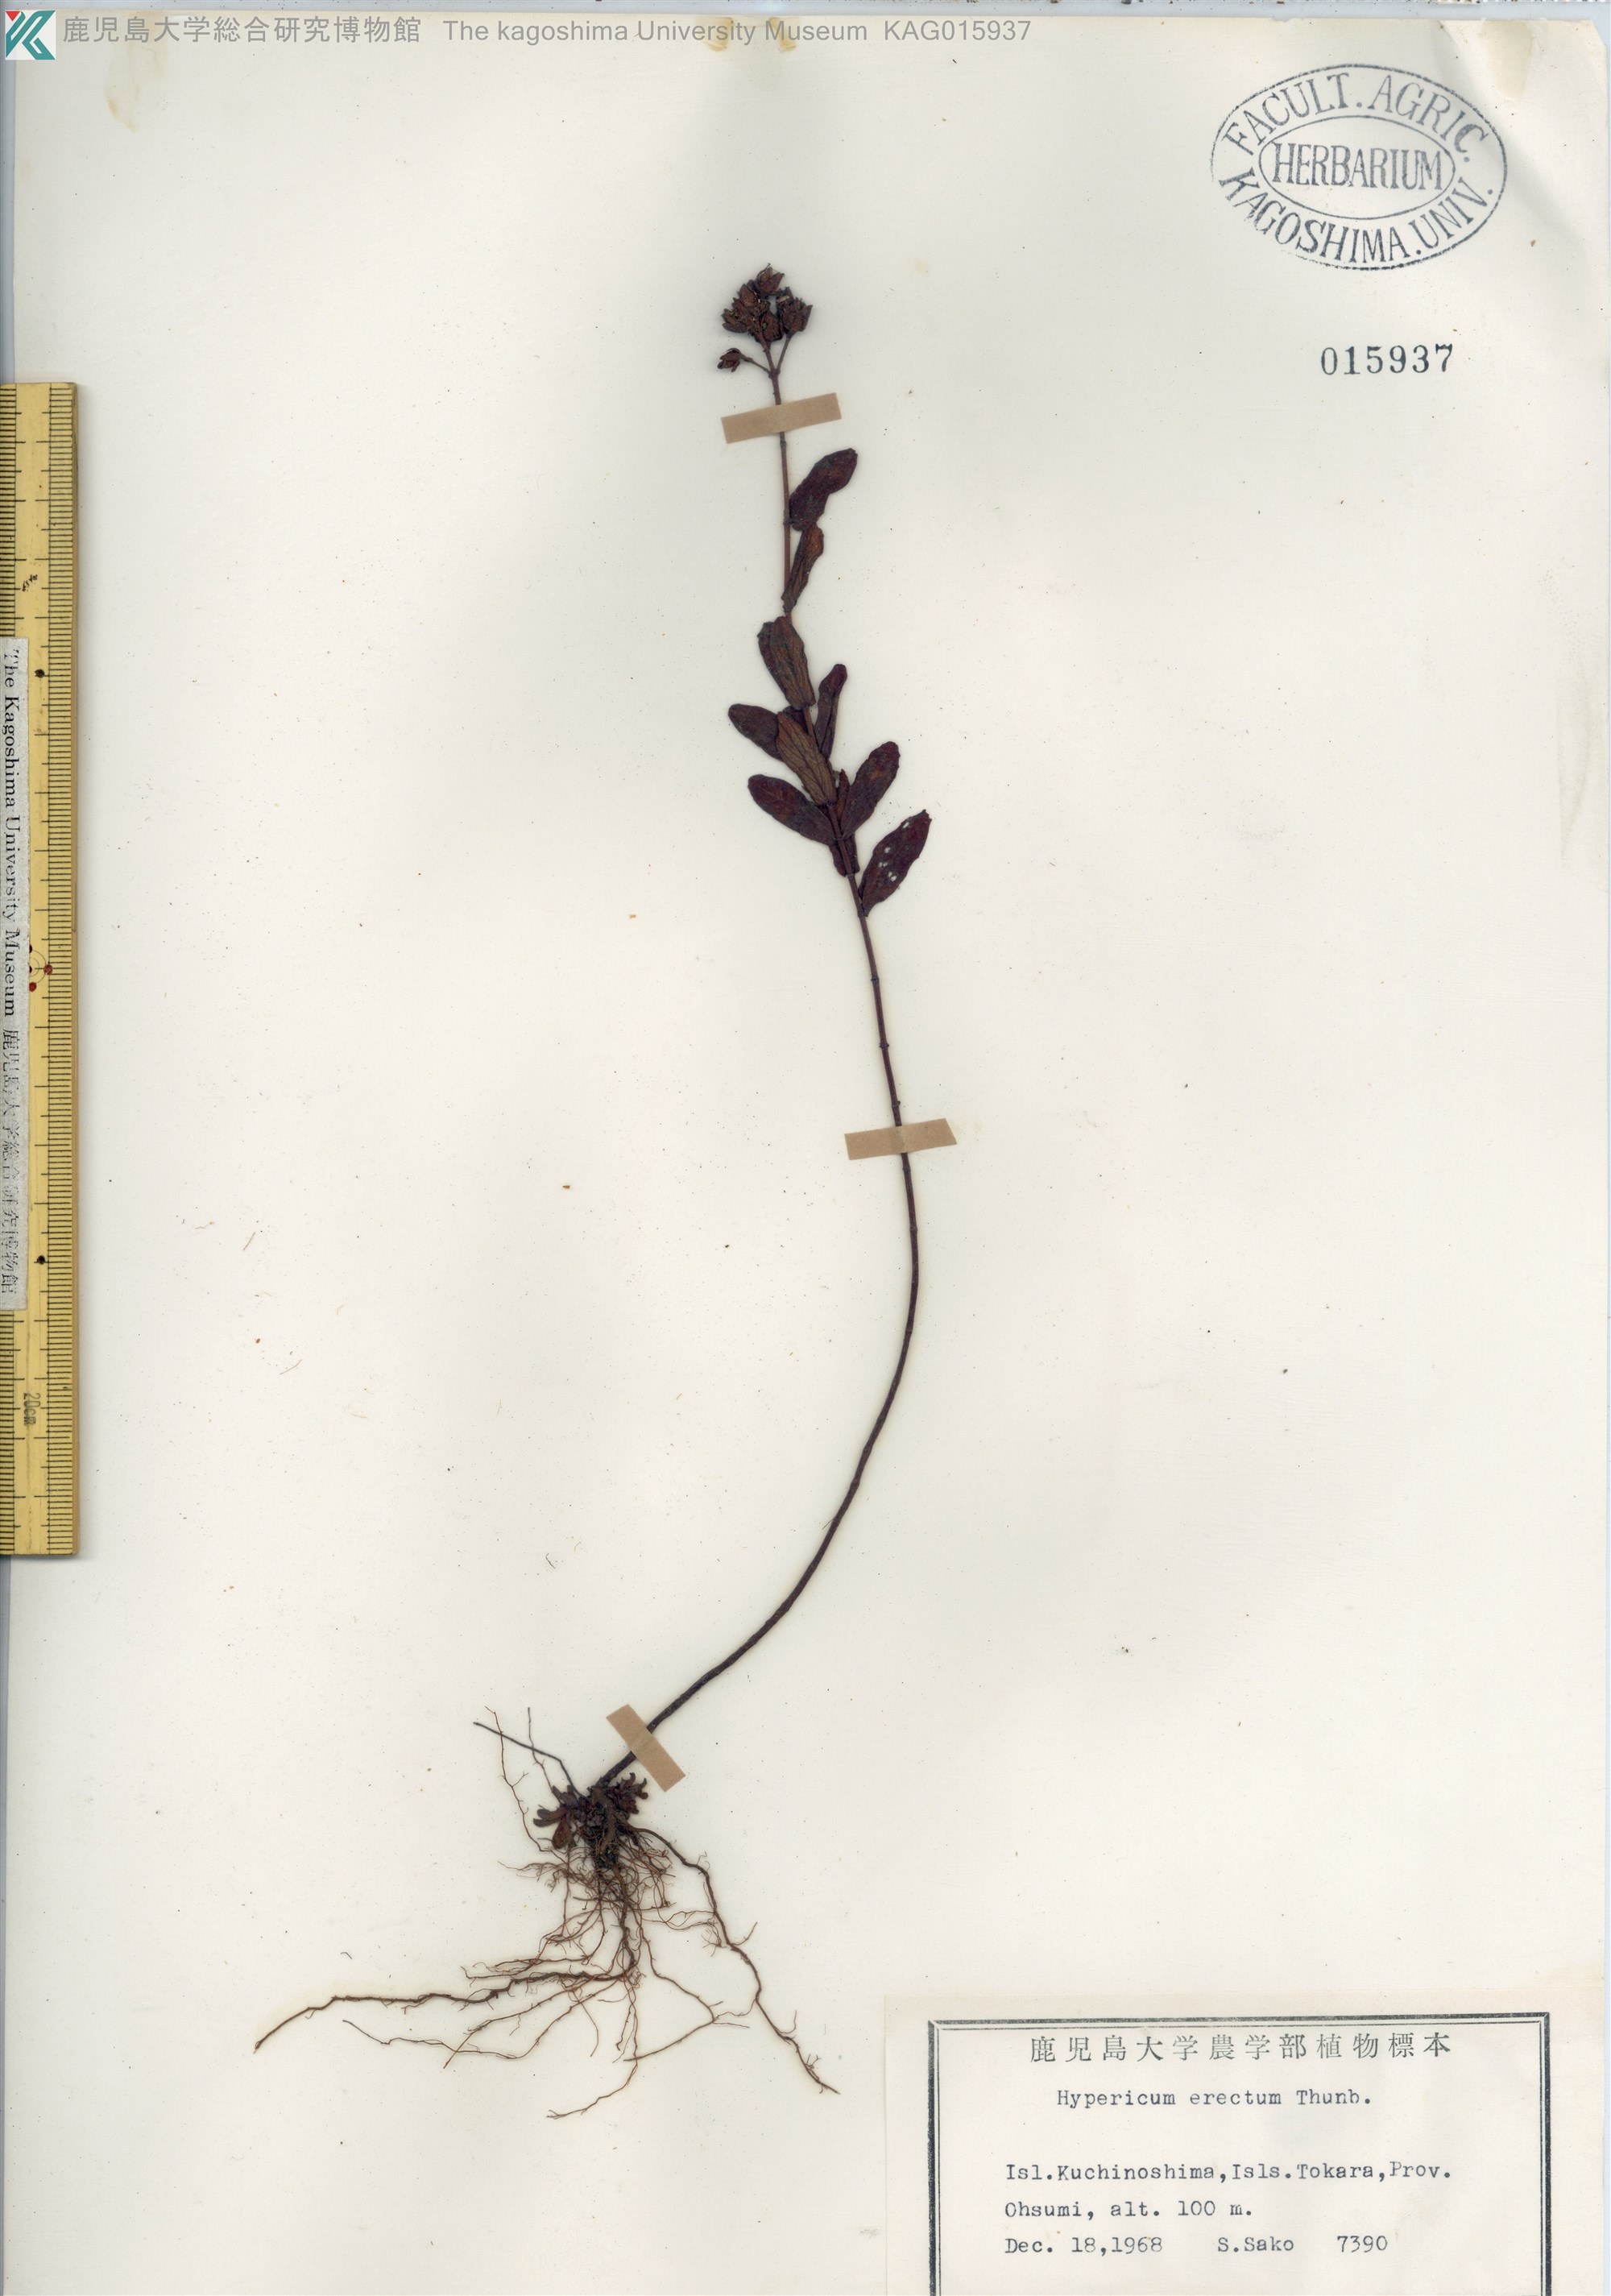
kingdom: Plantae
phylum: Tracheophyta
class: Magnoliopsida
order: Malpighiales
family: Hypericaceae
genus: Hypericum
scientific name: Hypericum erectum
